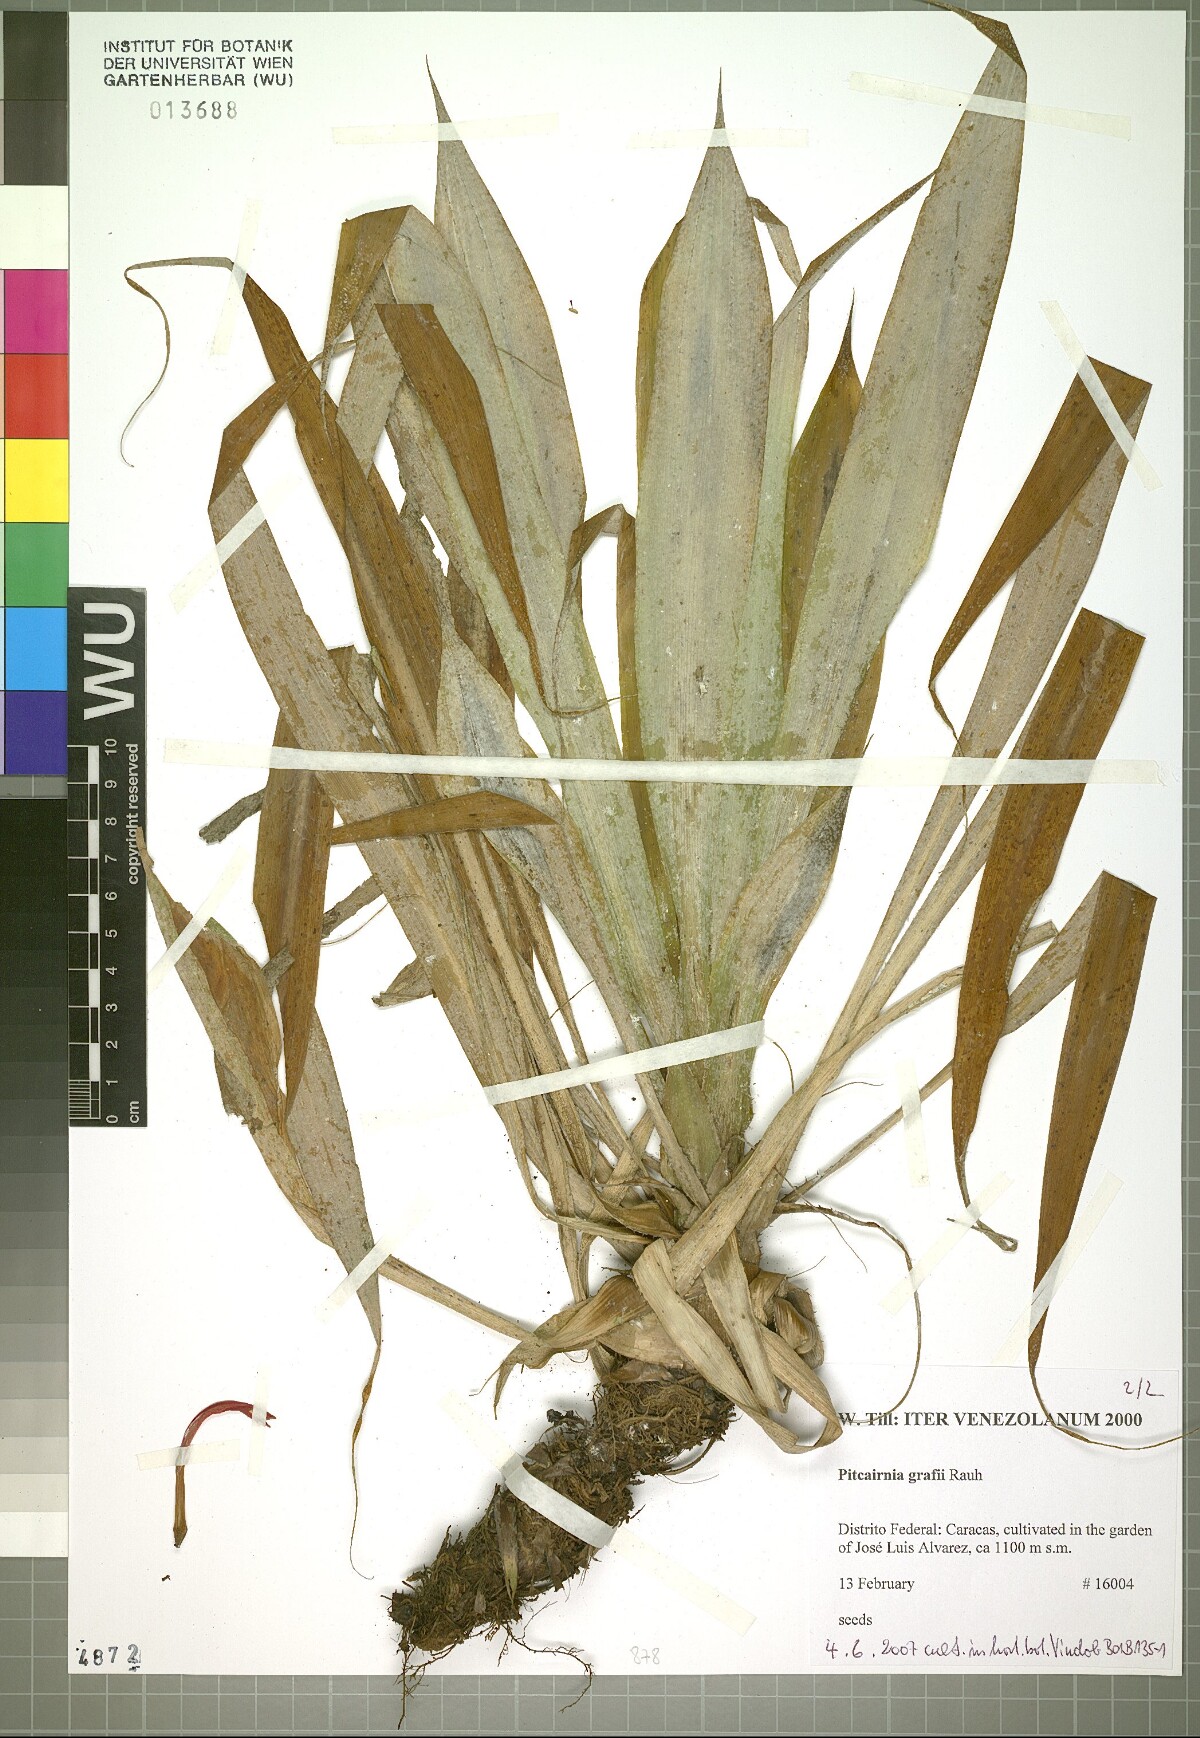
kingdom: Plantae
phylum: Tracheophyta
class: Liliopsida
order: Poales
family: Bromeliaceae
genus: Pitcairnia
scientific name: Pitcairnia
